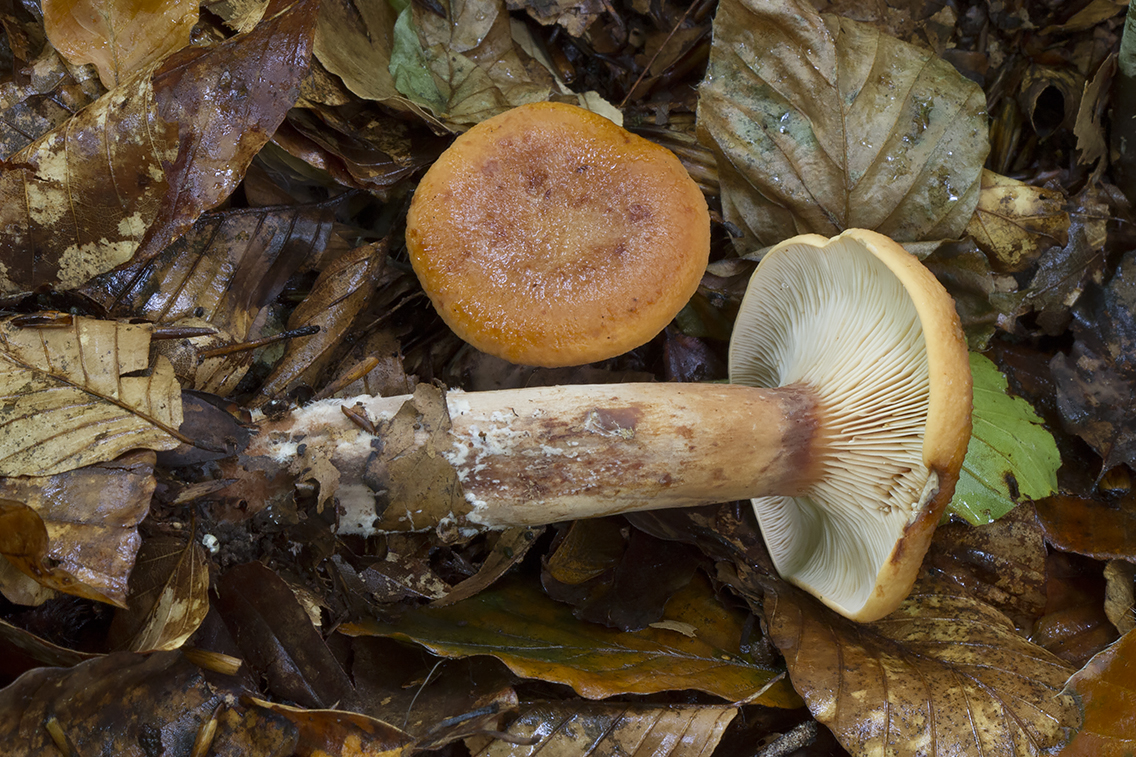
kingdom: Fungi
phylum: Basidiomycota
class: Agaricomycetes
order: Russulales
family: Russulaceae
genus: Lactarius
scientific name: Lactarius rubrocinctus
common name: halsbånd-mælkehat
